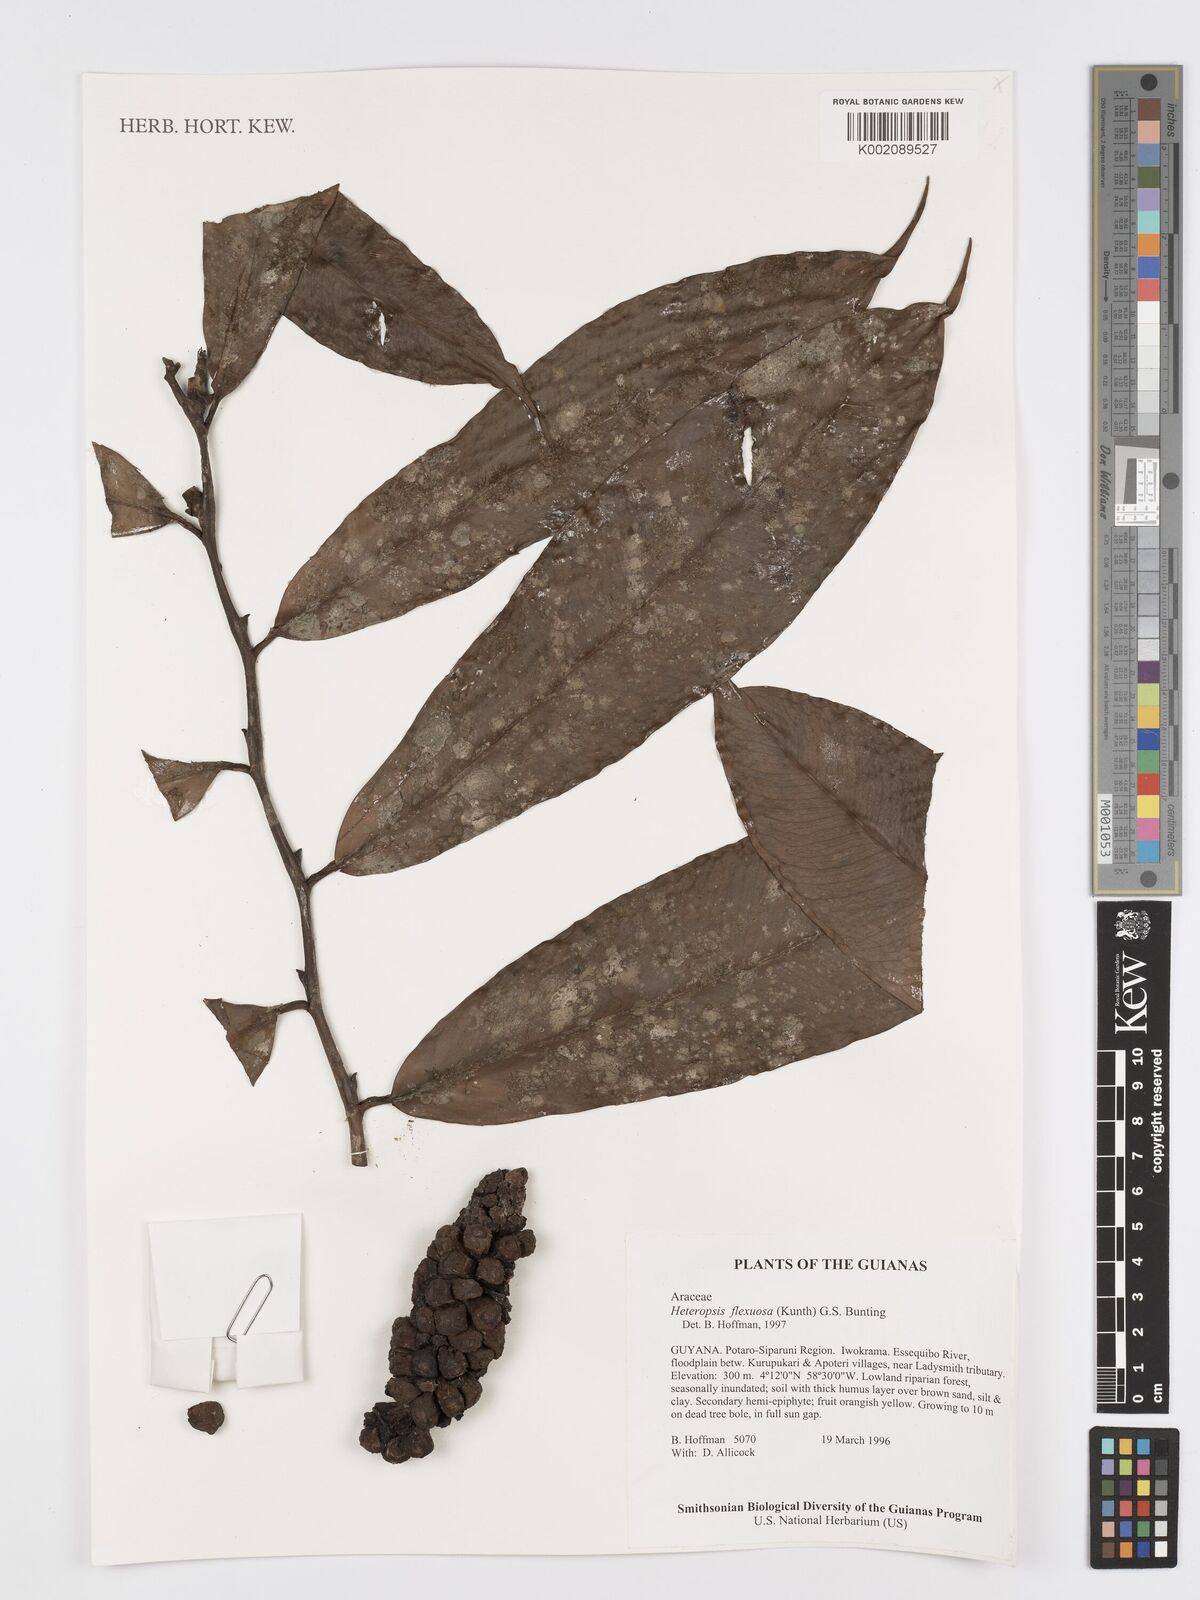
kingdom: Plantae
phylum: Tracheophyta
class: Liliopsida
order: Alismatales
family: Araceae
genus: Heteropsis
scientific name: Heteropsis flexuosa
